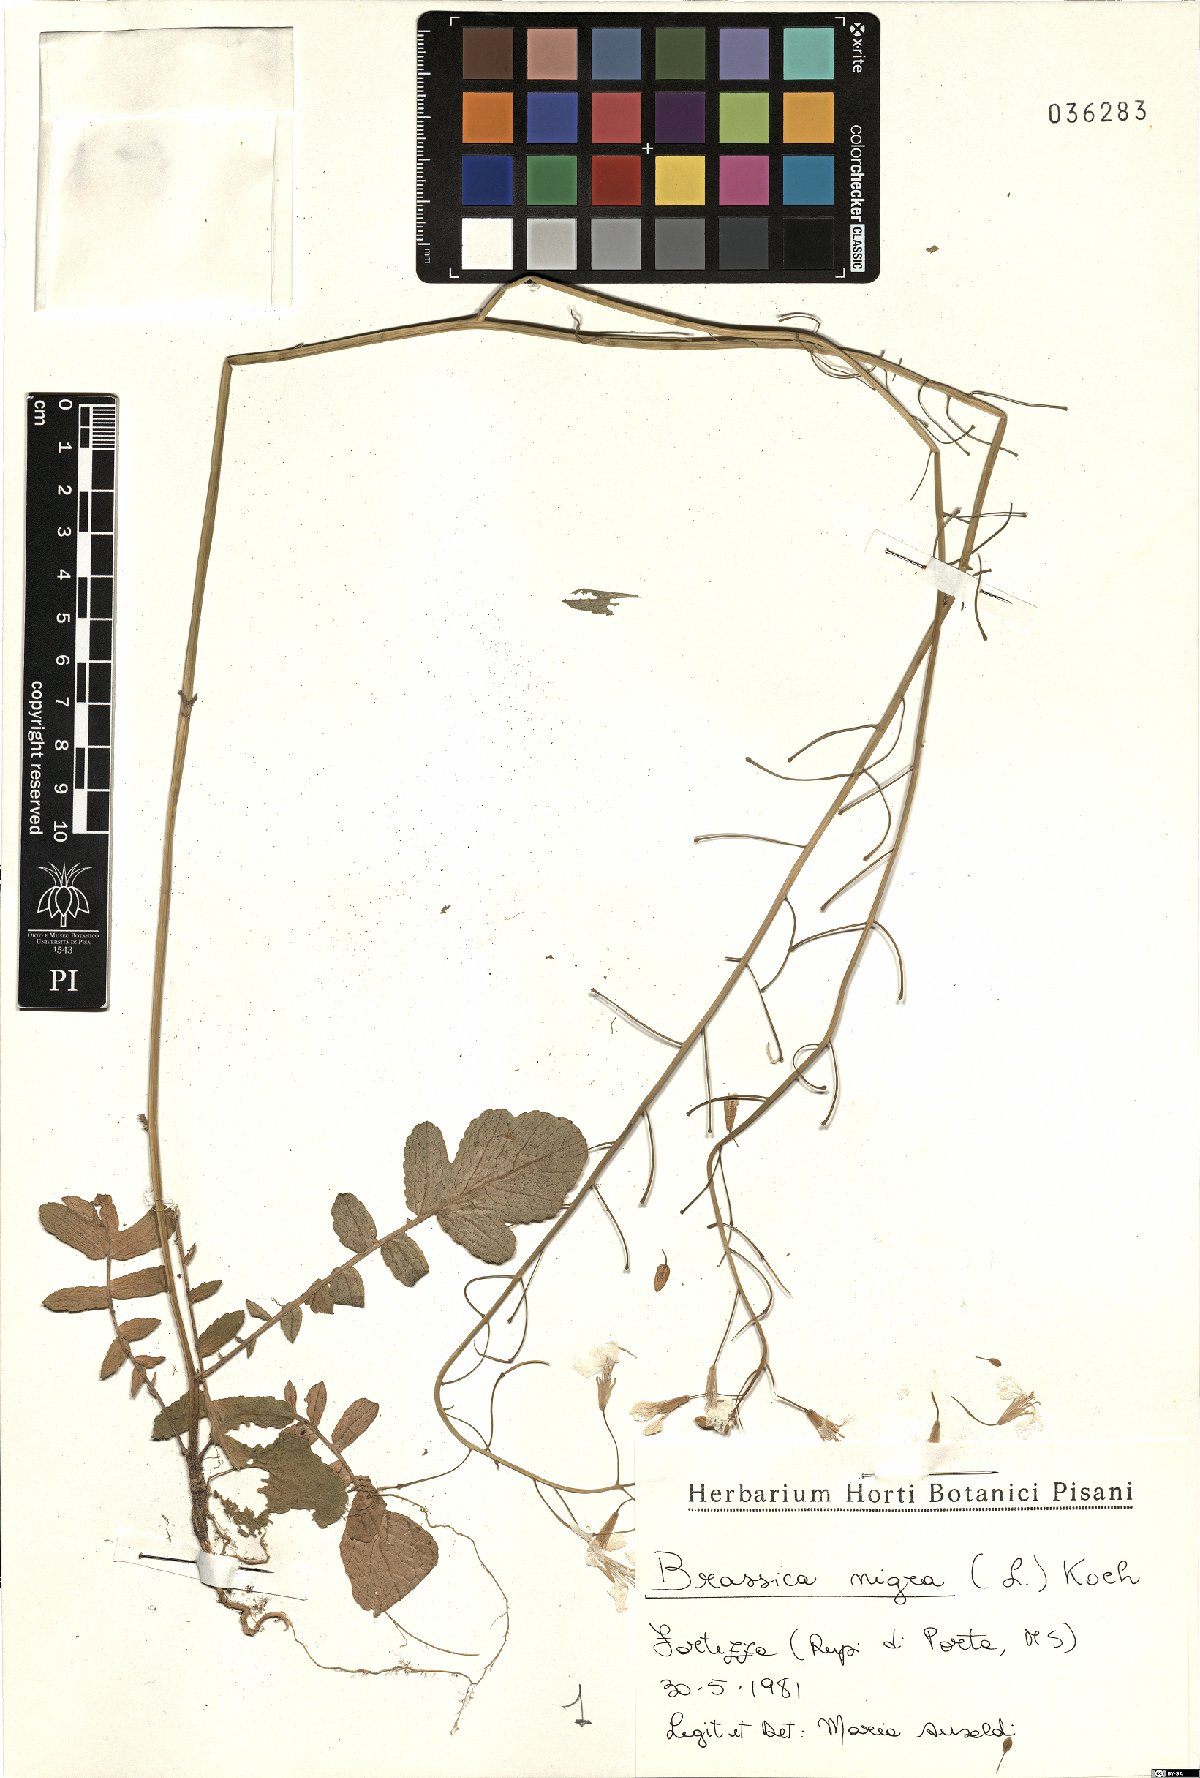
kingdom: Plantae
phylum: Tracheophyta
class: Magnoliopsida
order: Brassicales
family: Brassicaceae
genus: Brassica
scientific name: Brassica nigra
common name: Black mustard
